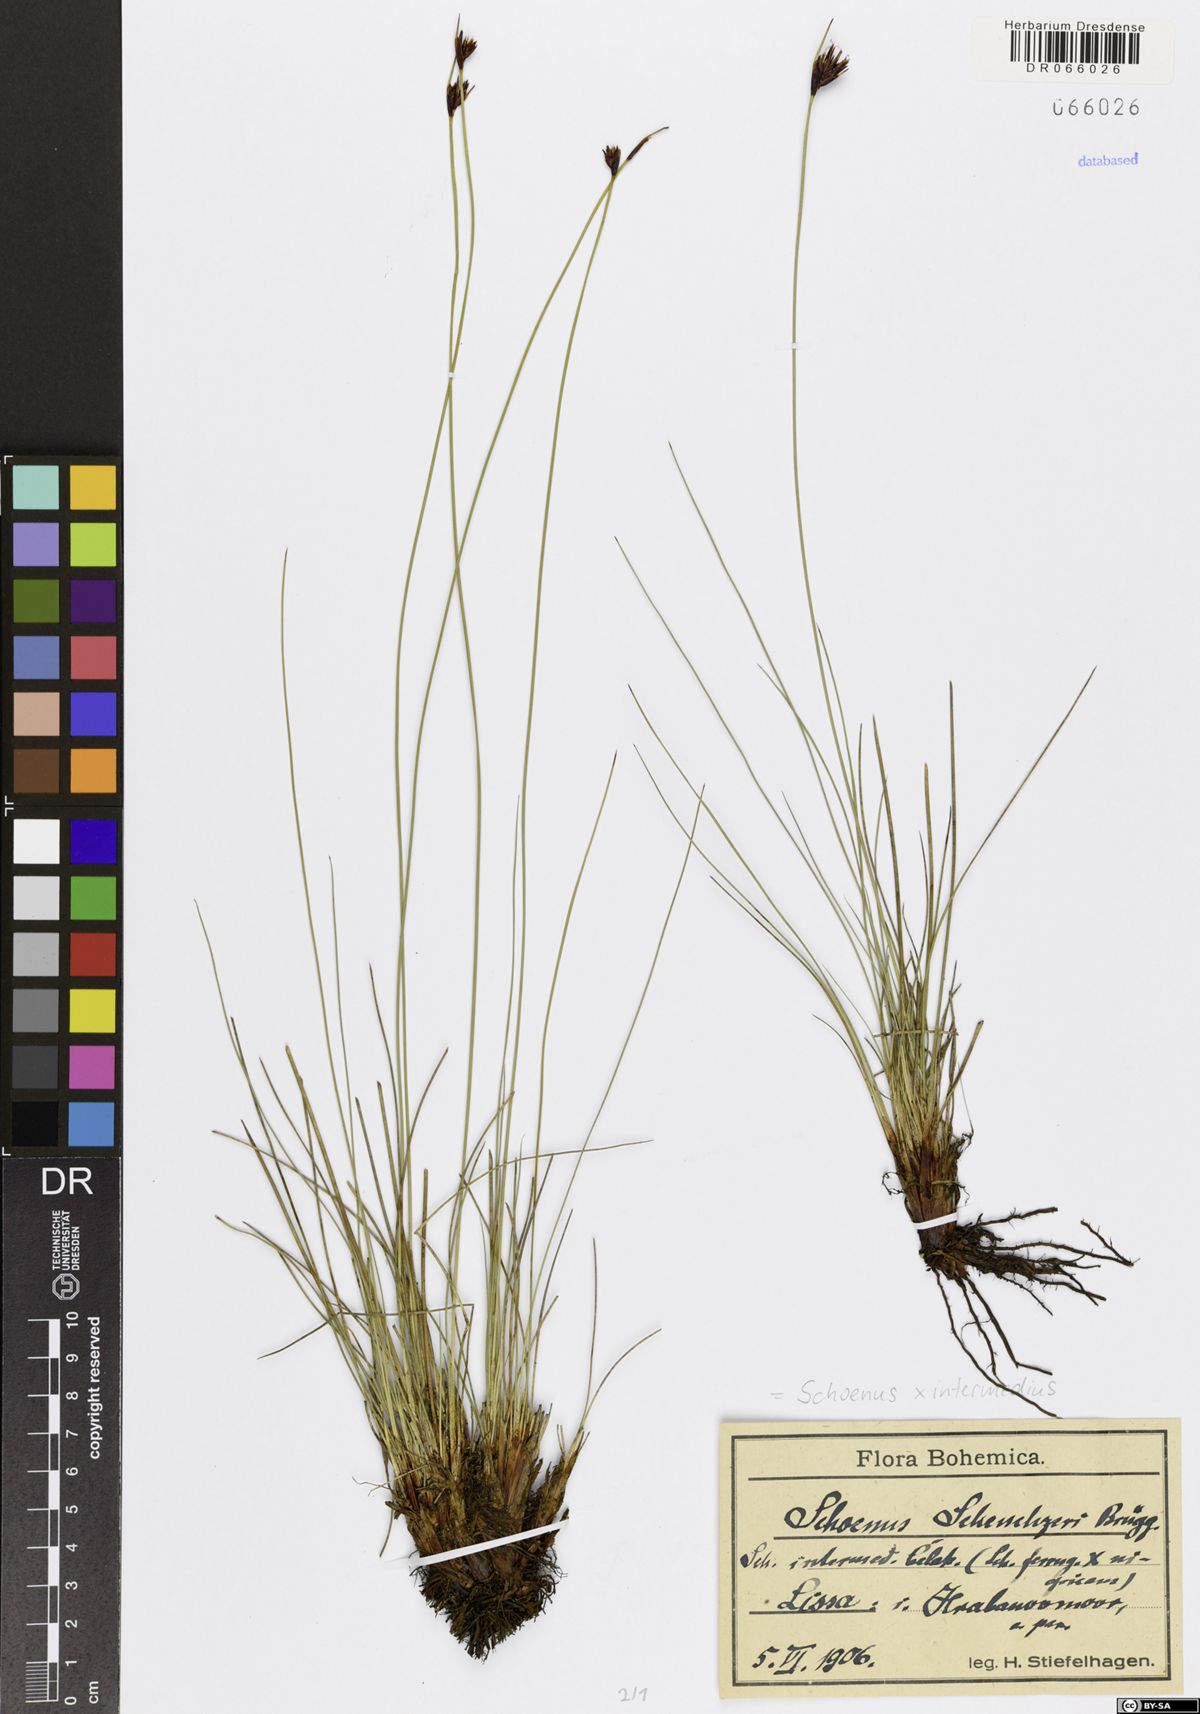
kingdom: Plantae
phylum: Tracheophyta
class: Liliopsida
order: Poales
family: Cyperaceae
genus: Schoenus
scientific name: Schoenus scheuchzeri
